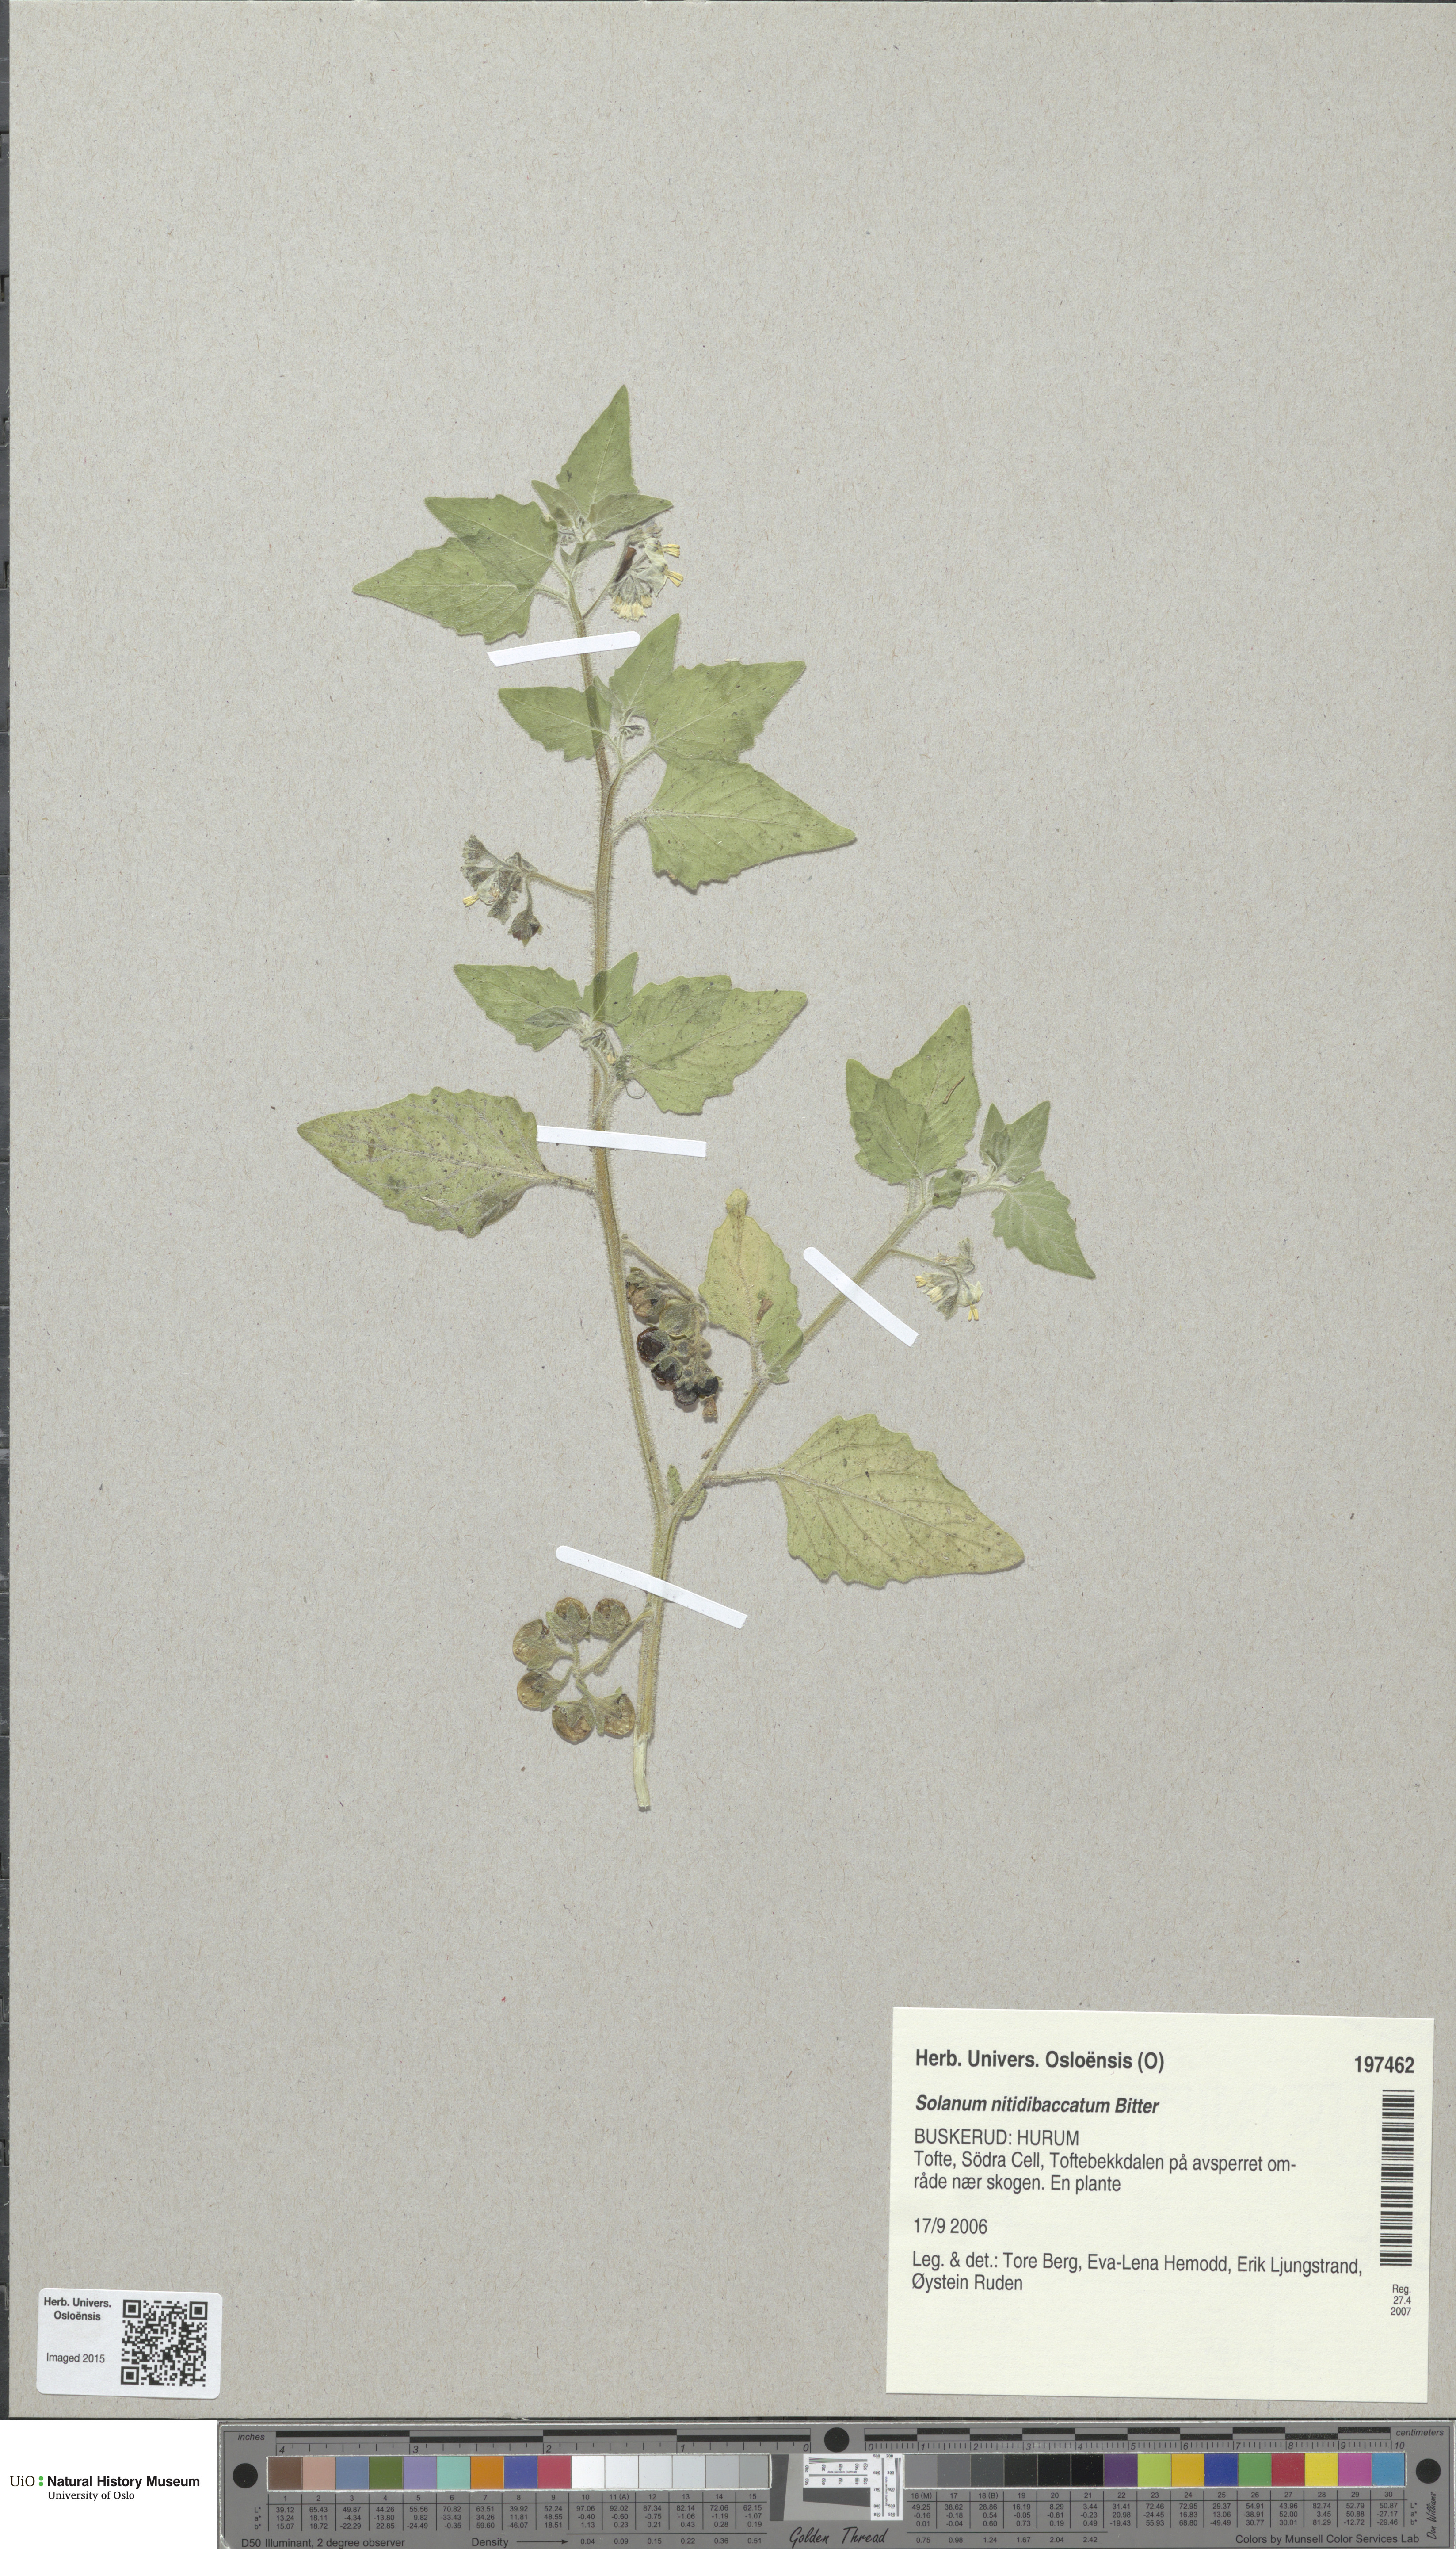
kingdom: Plantae
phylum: Tracheophyta
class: Magnoliopsida
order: Solanales
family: Solanaceae
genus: Solanum
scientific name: Solanum physalifolium
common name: Green nightshade
